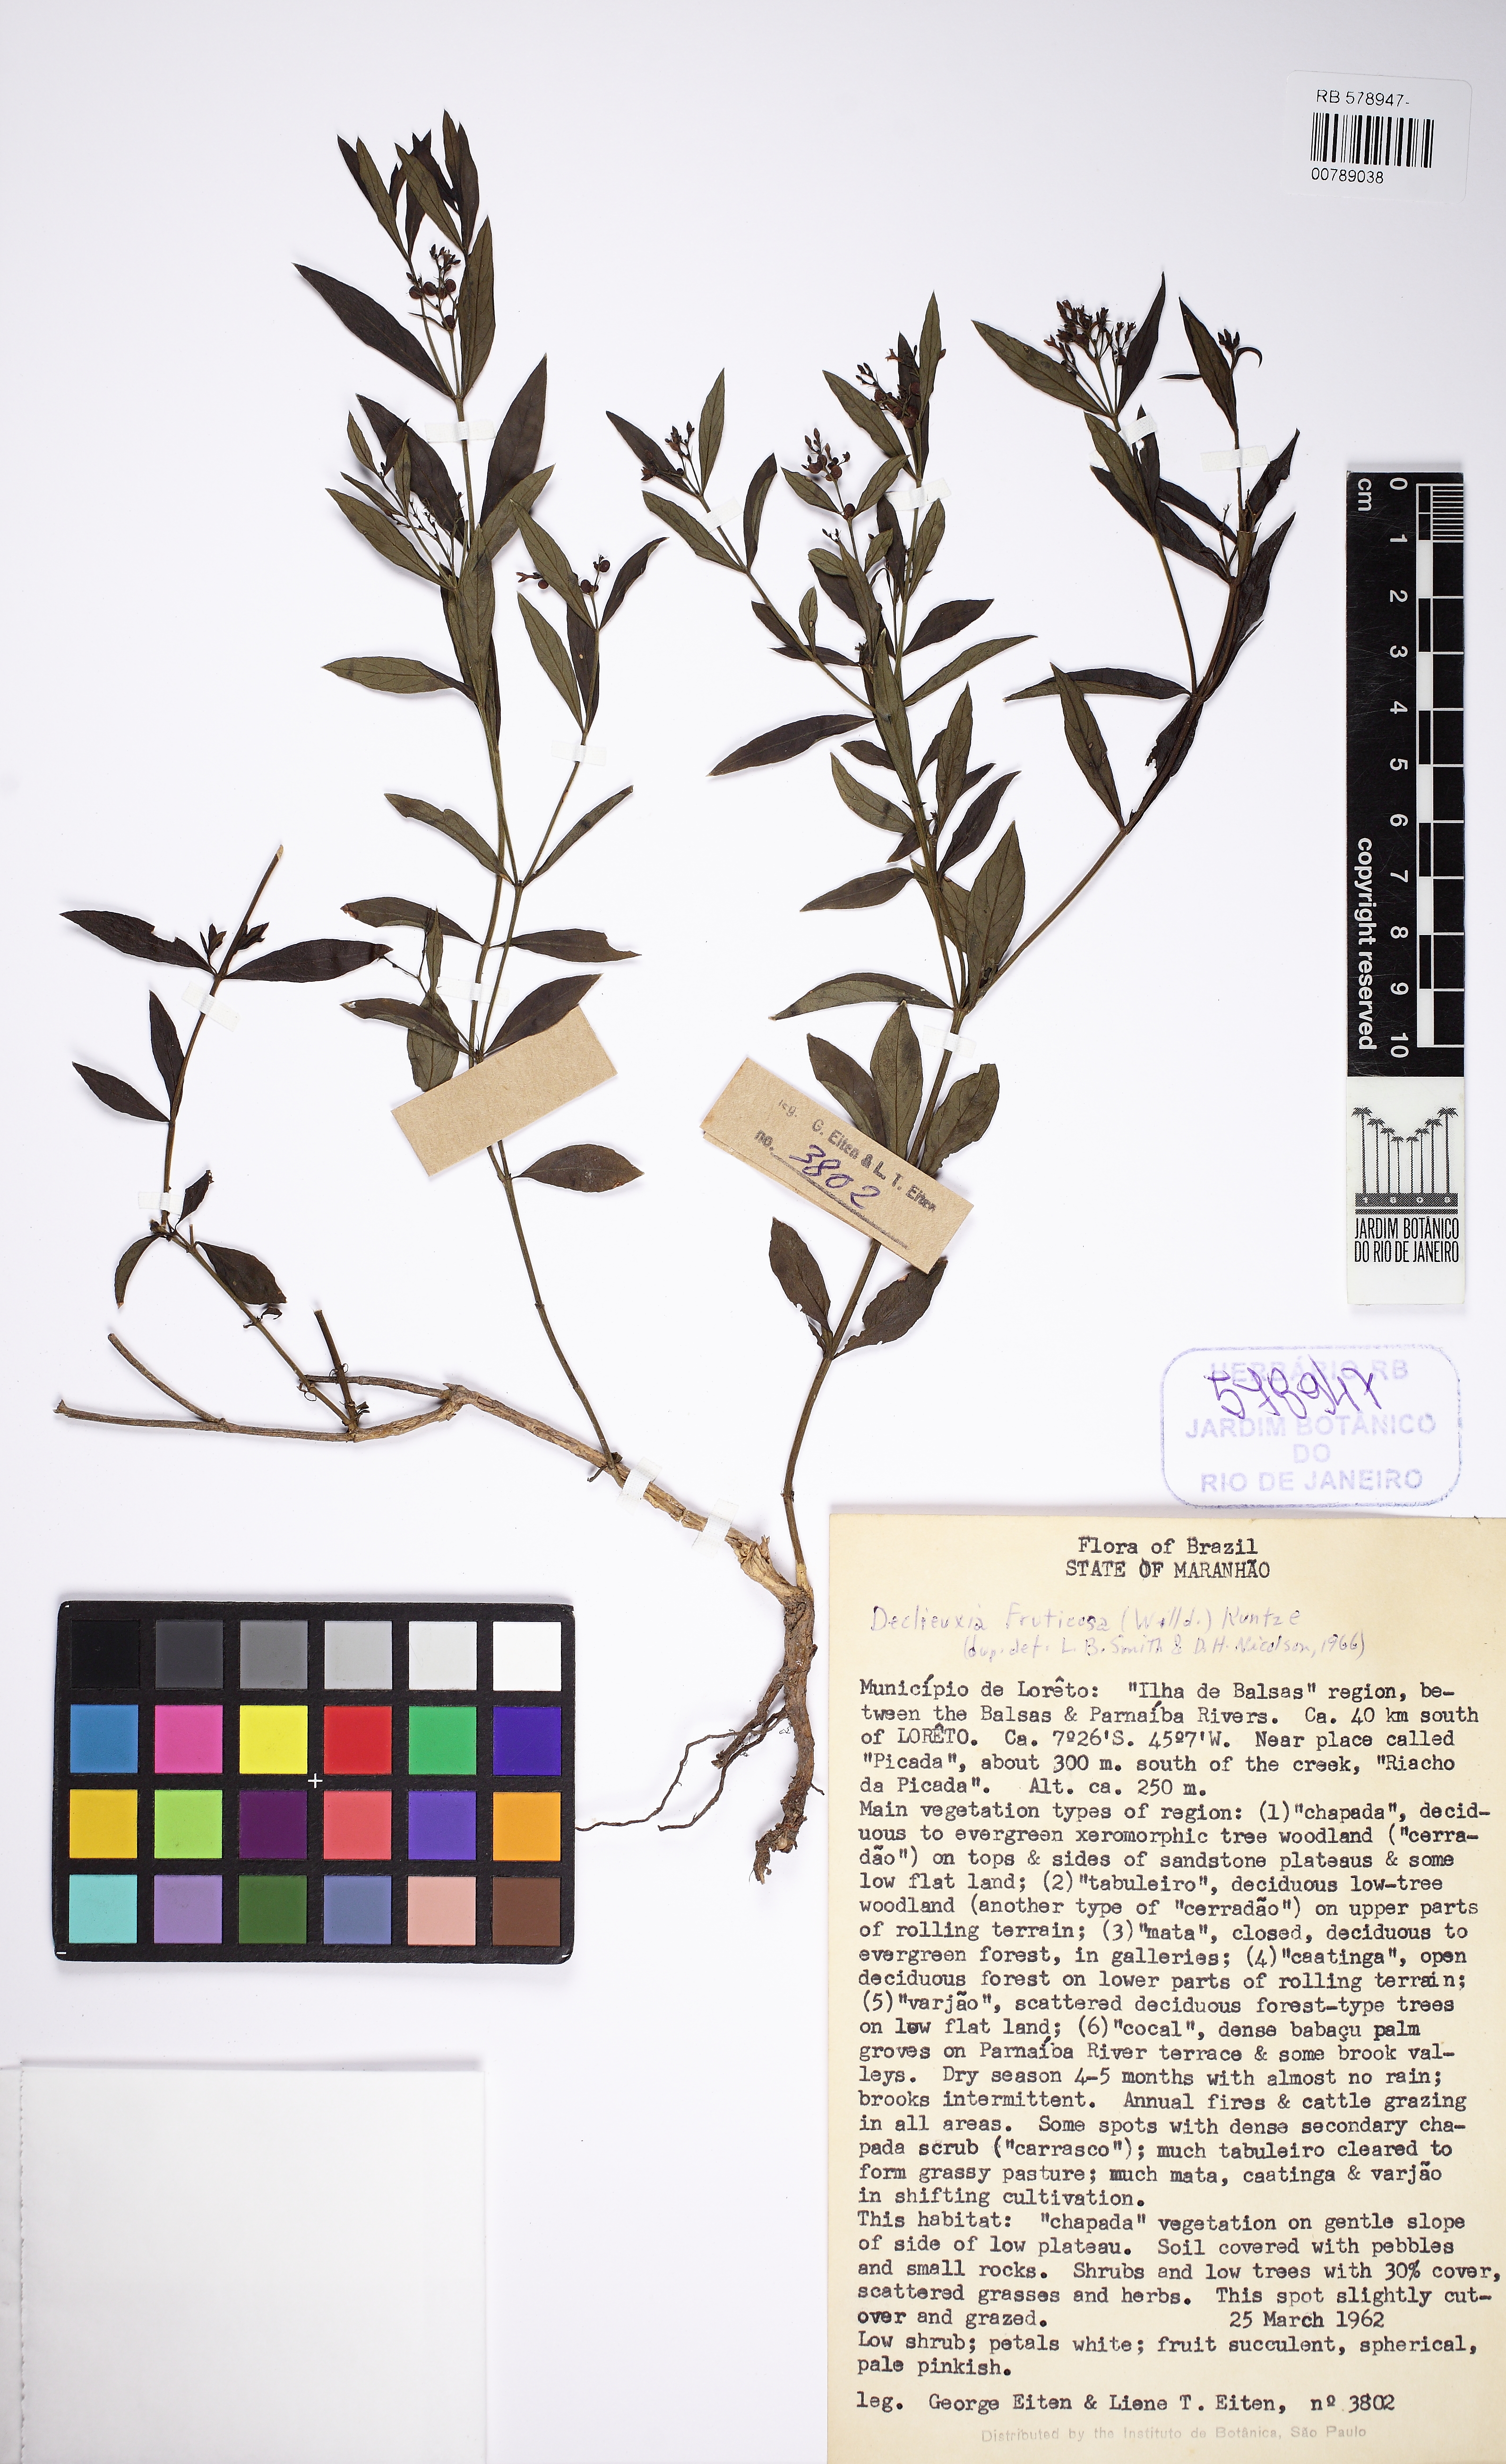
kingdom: Plantae
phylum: Tracheophyta
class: Magnoliopsida
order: Gentianales
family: Rubiaceae
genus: Declieuxia
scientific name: Declieuxia fruticosa
